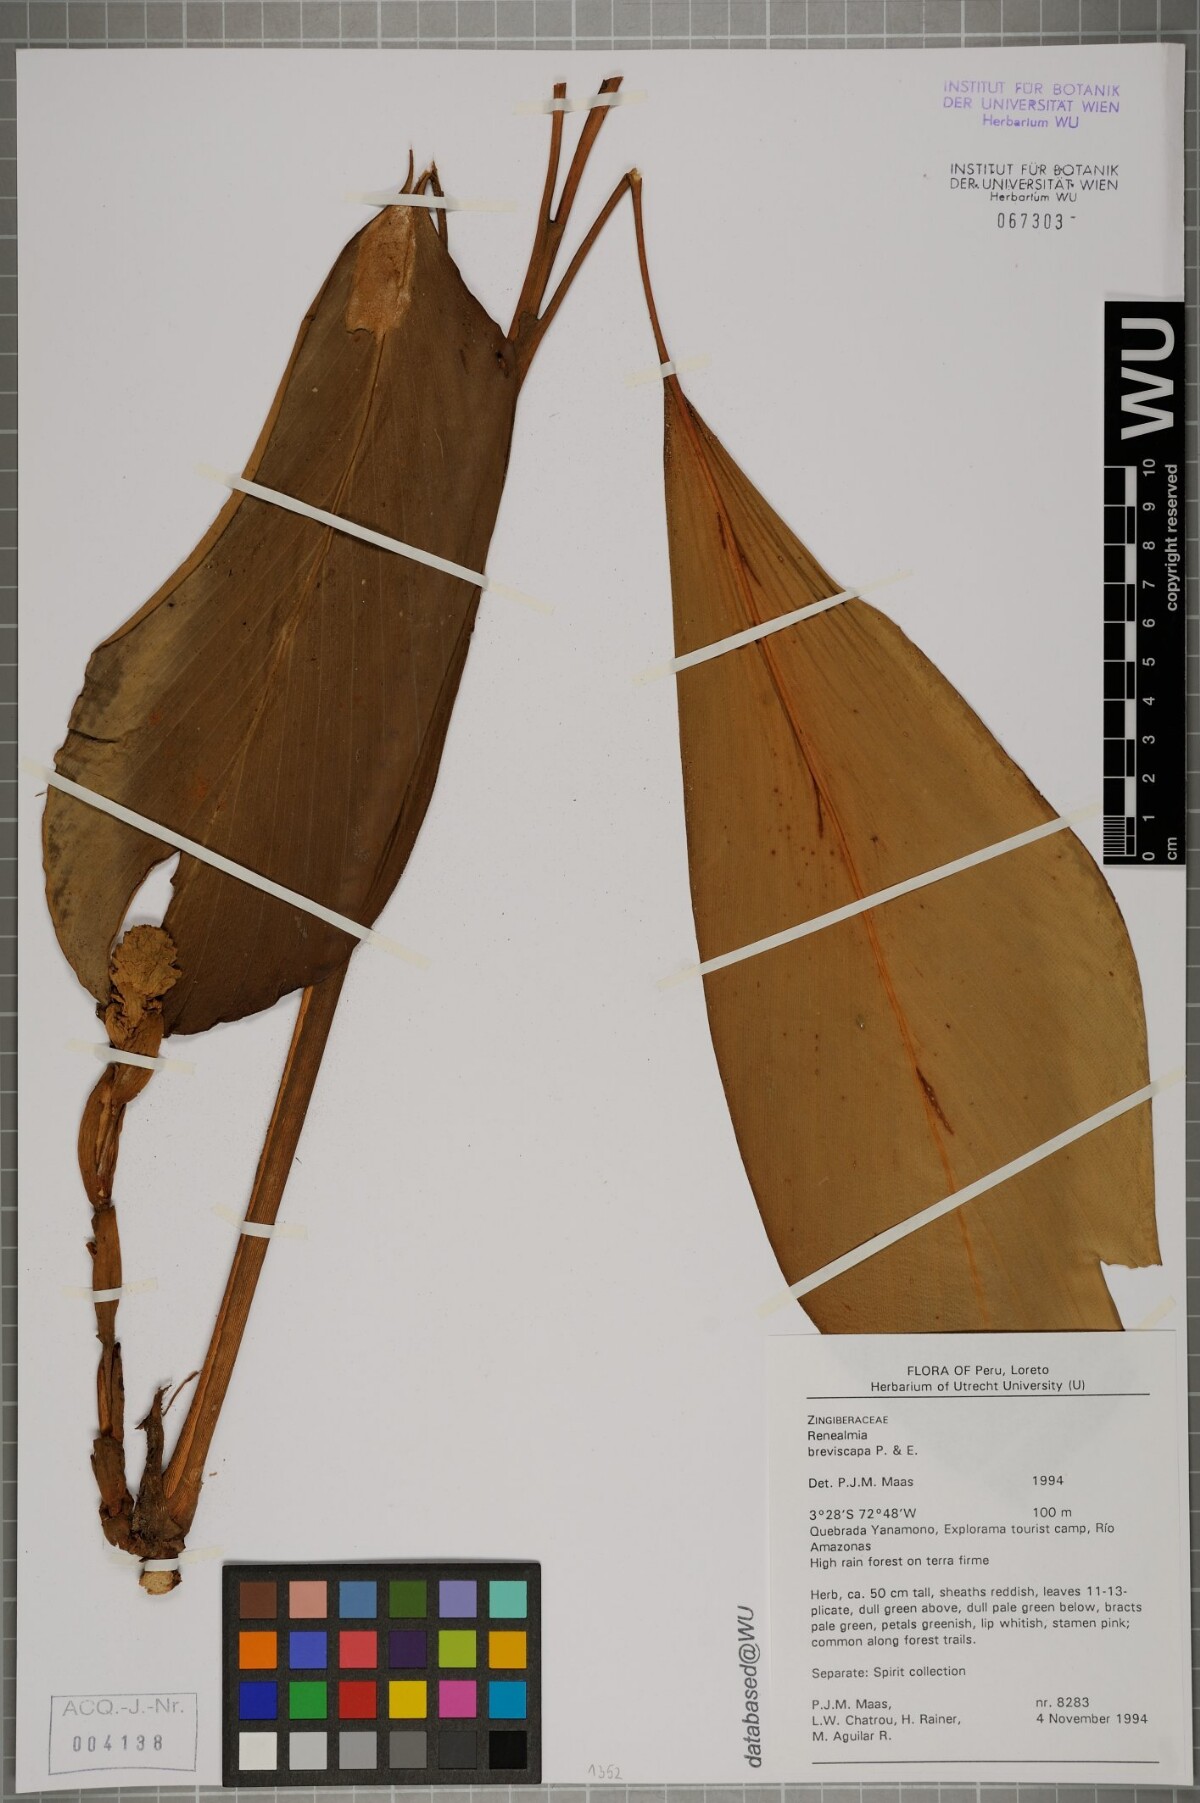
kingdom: Plantae
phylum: Tracheophyta
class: Liliopsida
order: Zingiberales
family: Zingiberaceae
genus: Renealmia
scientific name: Renealmia breviscapa
